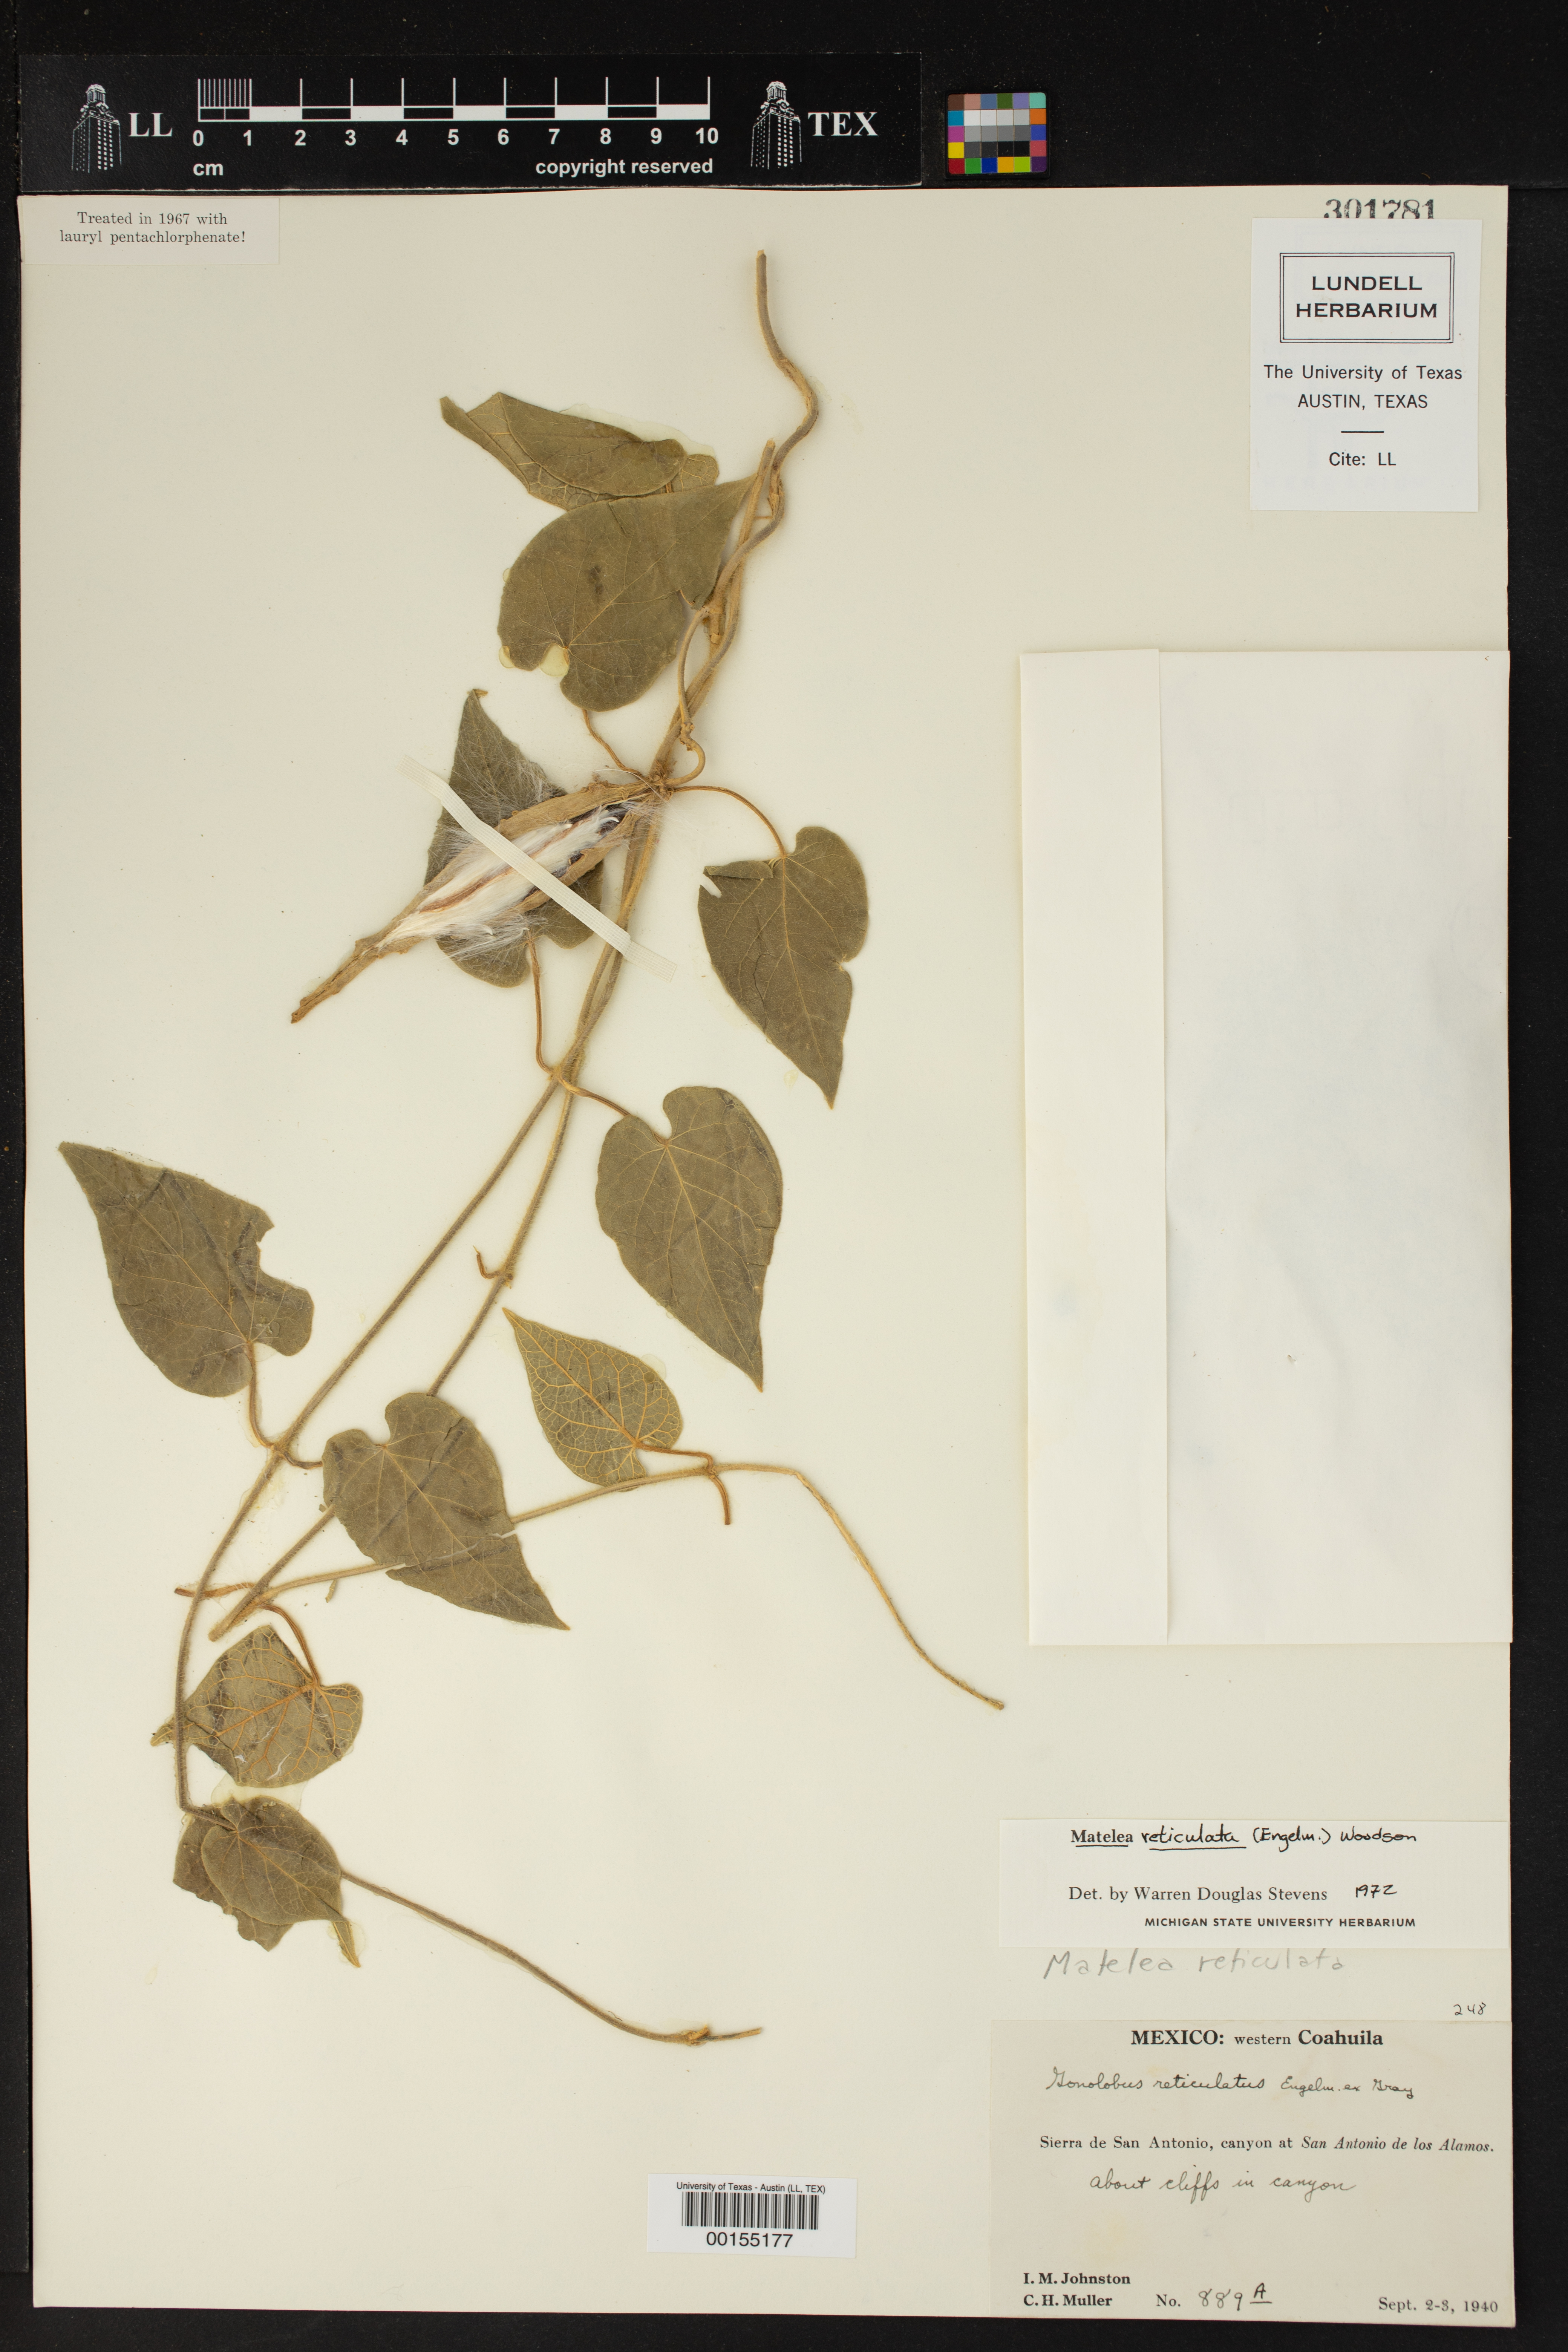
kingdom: Plantae
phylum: Tracheophyta
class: Magnoliopsida
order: Gentianales
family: Apocynaceae
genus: Dictyanthus
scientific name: Dictyanthus reticulatus
